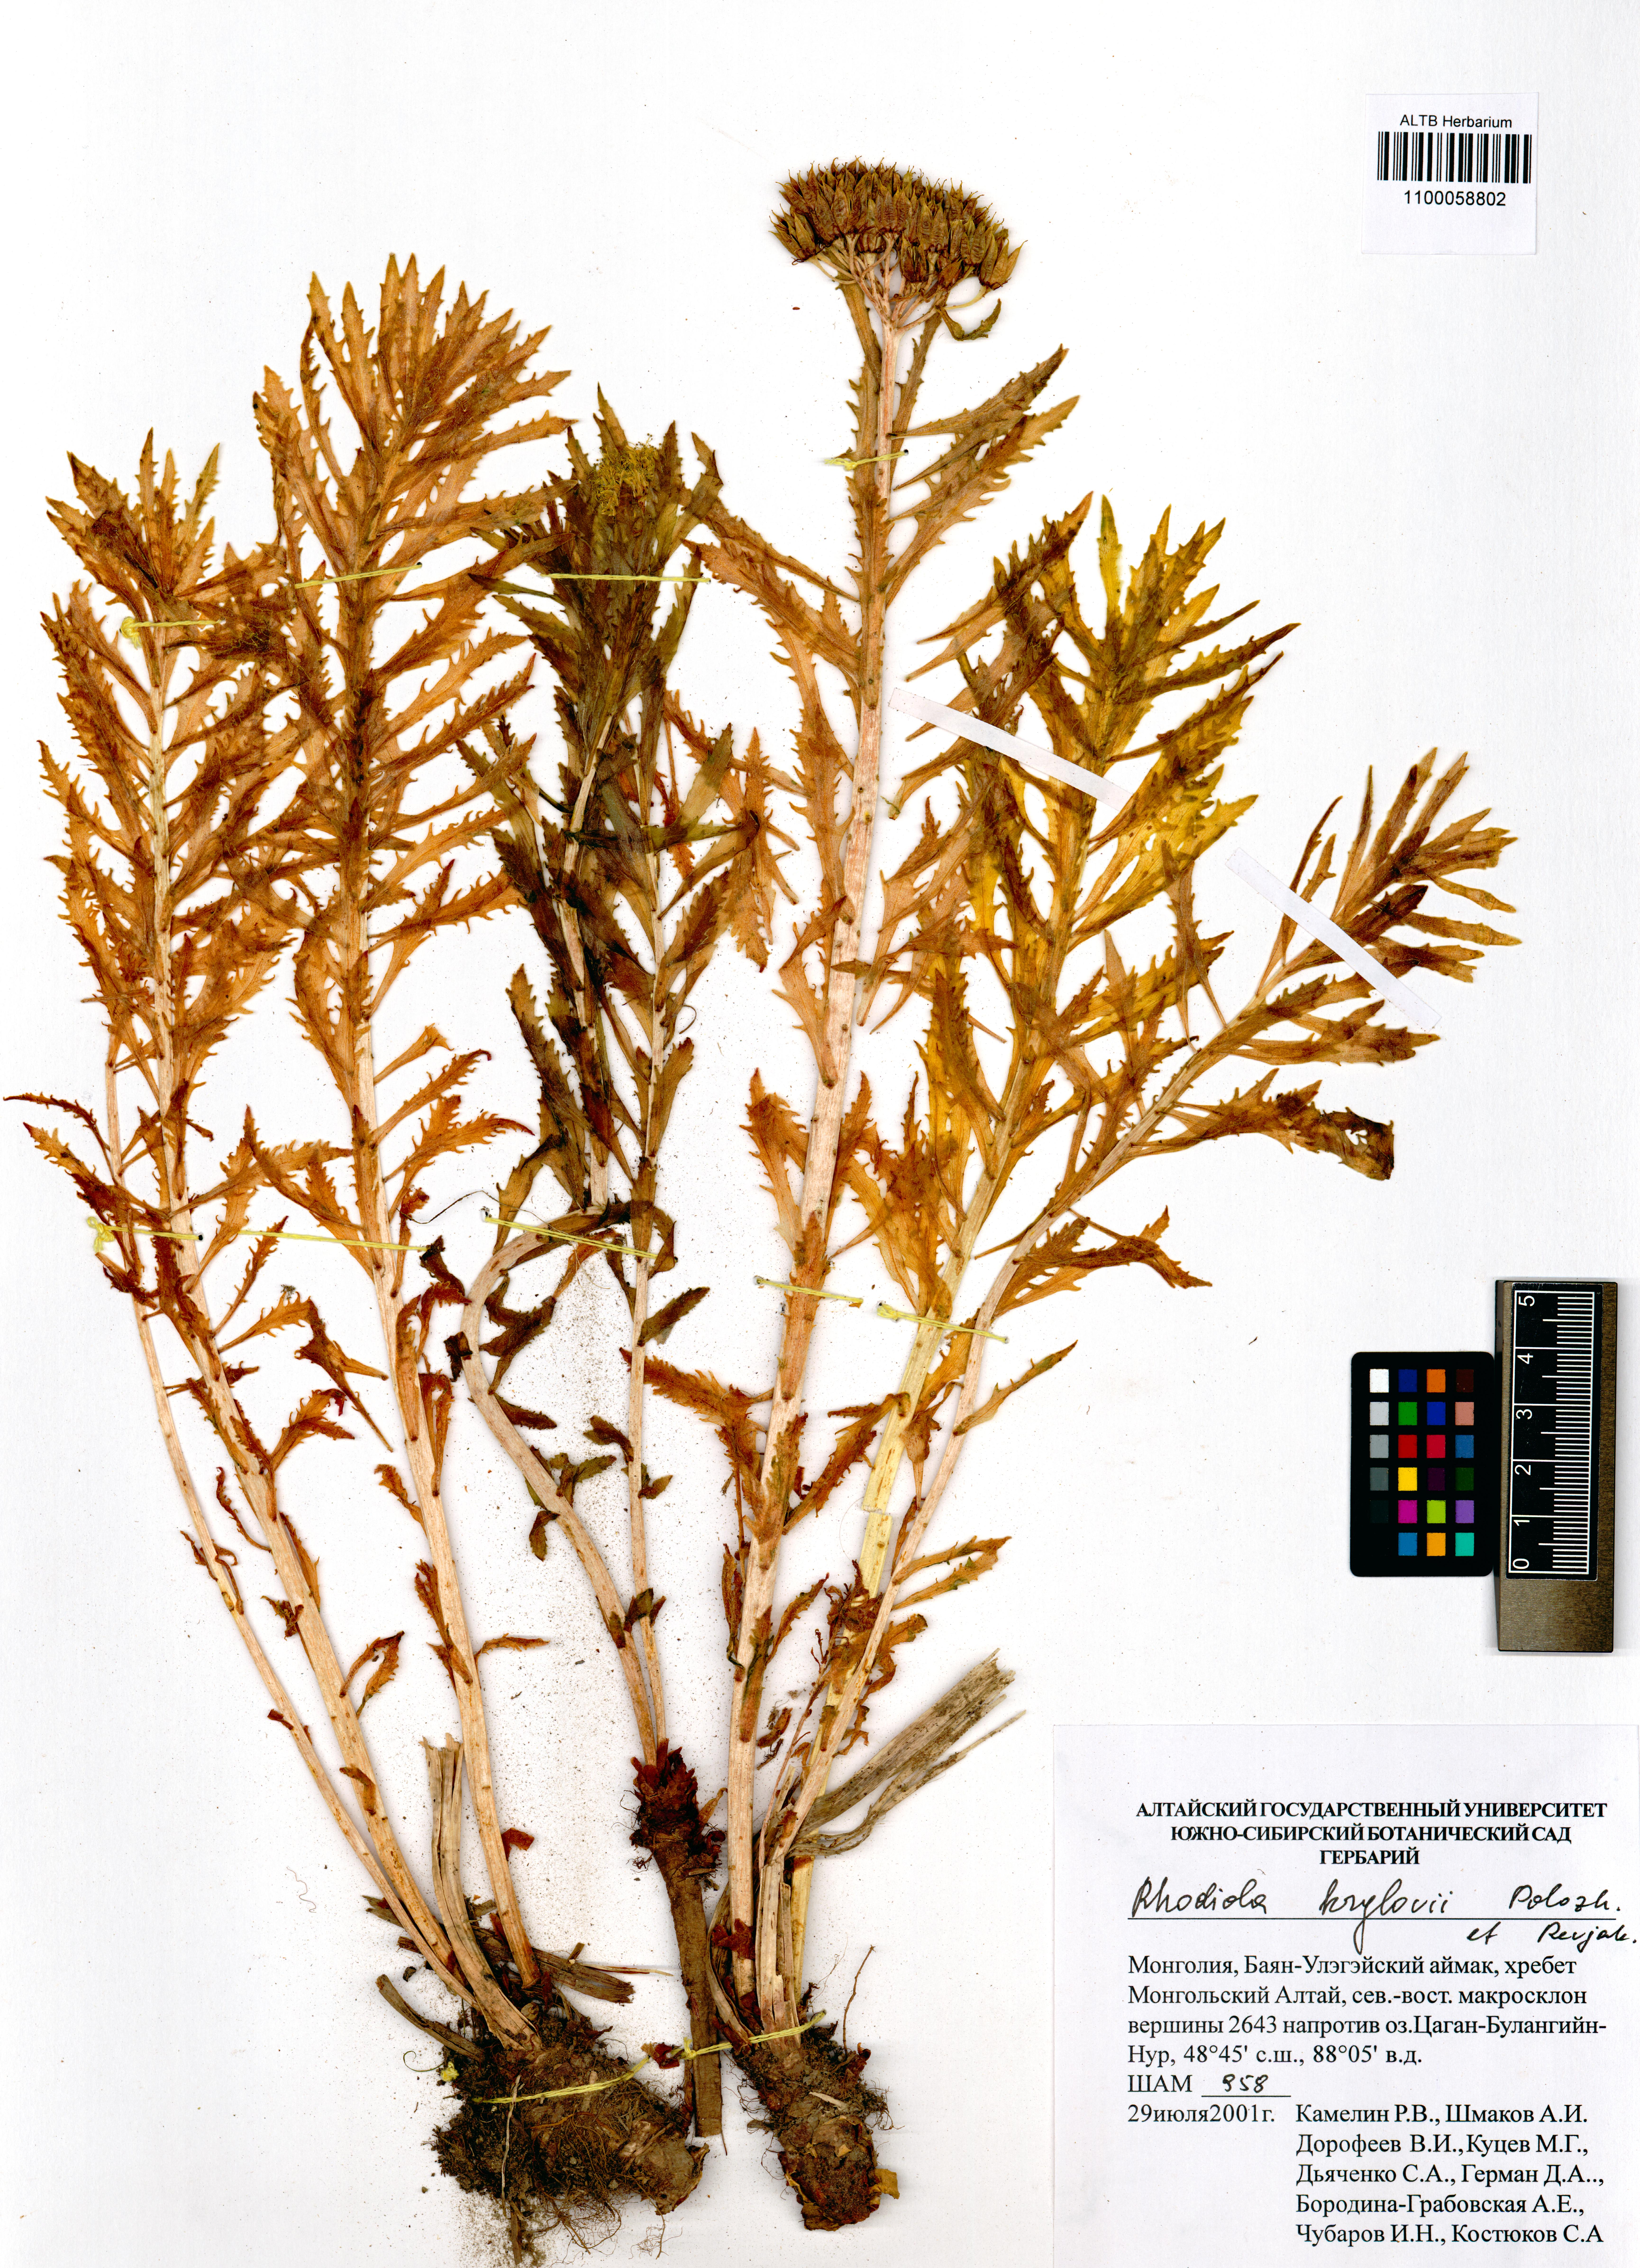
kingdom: Plantae
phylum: Tracheophyta
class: Magnoliopsida
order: Saxifragales
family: Crassulaceae
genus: Rhodiola
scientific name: Rhodiola stephani
